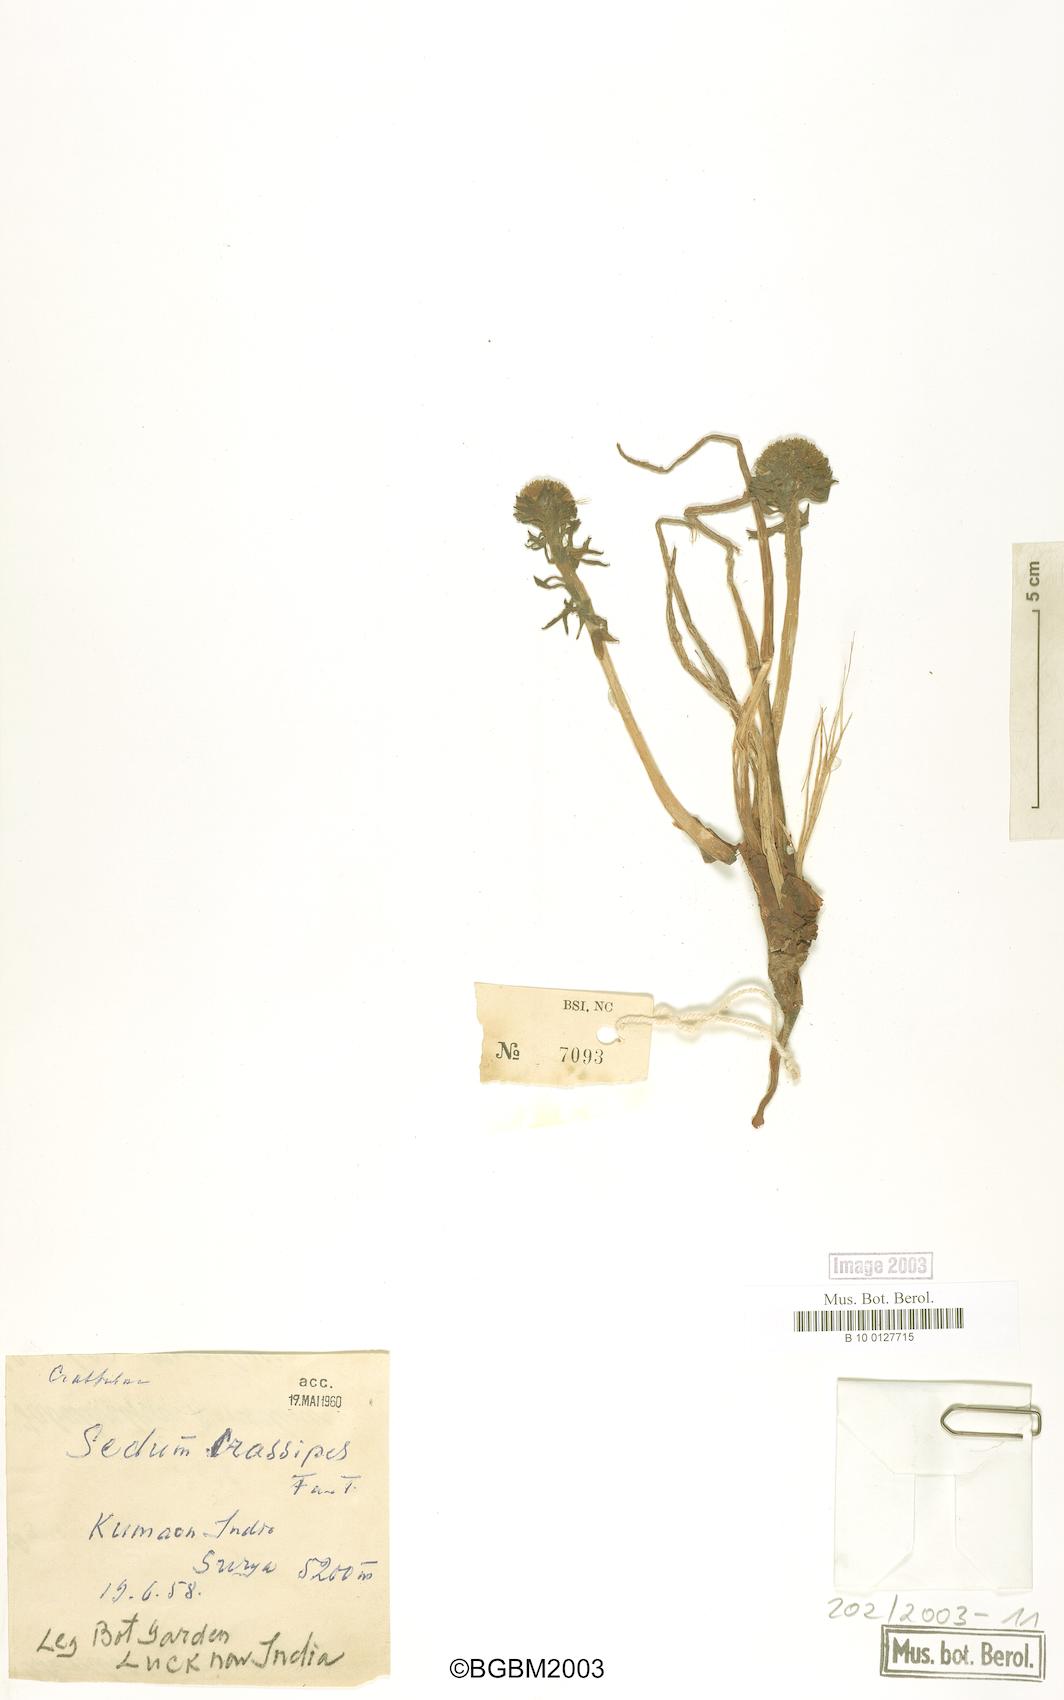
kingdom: Plantae
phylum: Tracheophyta
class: Magnoliopsida
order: Saxifragales
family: Crassulaceae
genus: Rhodiola
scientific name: Rhodiola wallichiana
